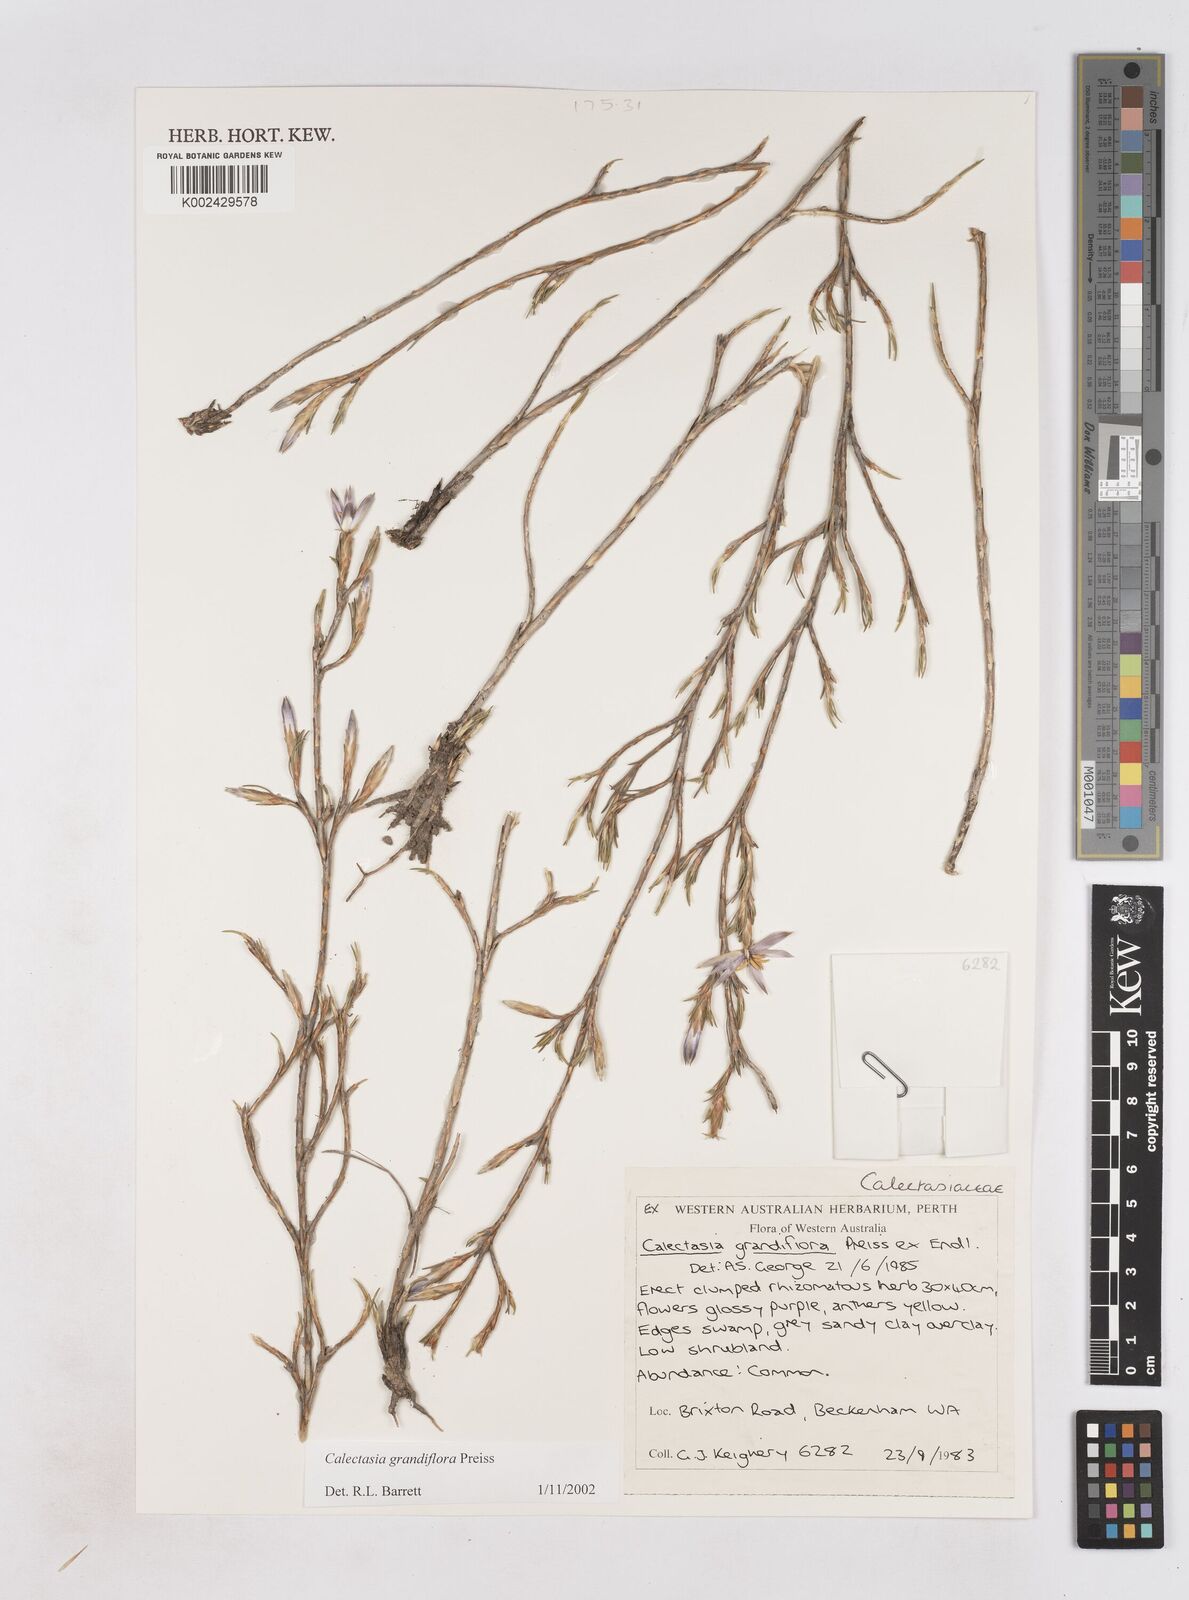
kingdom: Plantae
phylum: Tracheophyta
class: Liliopsida
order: Arecales
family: Dasypogonaceae
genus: Calectasia
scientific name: Calectasia grandiflora
